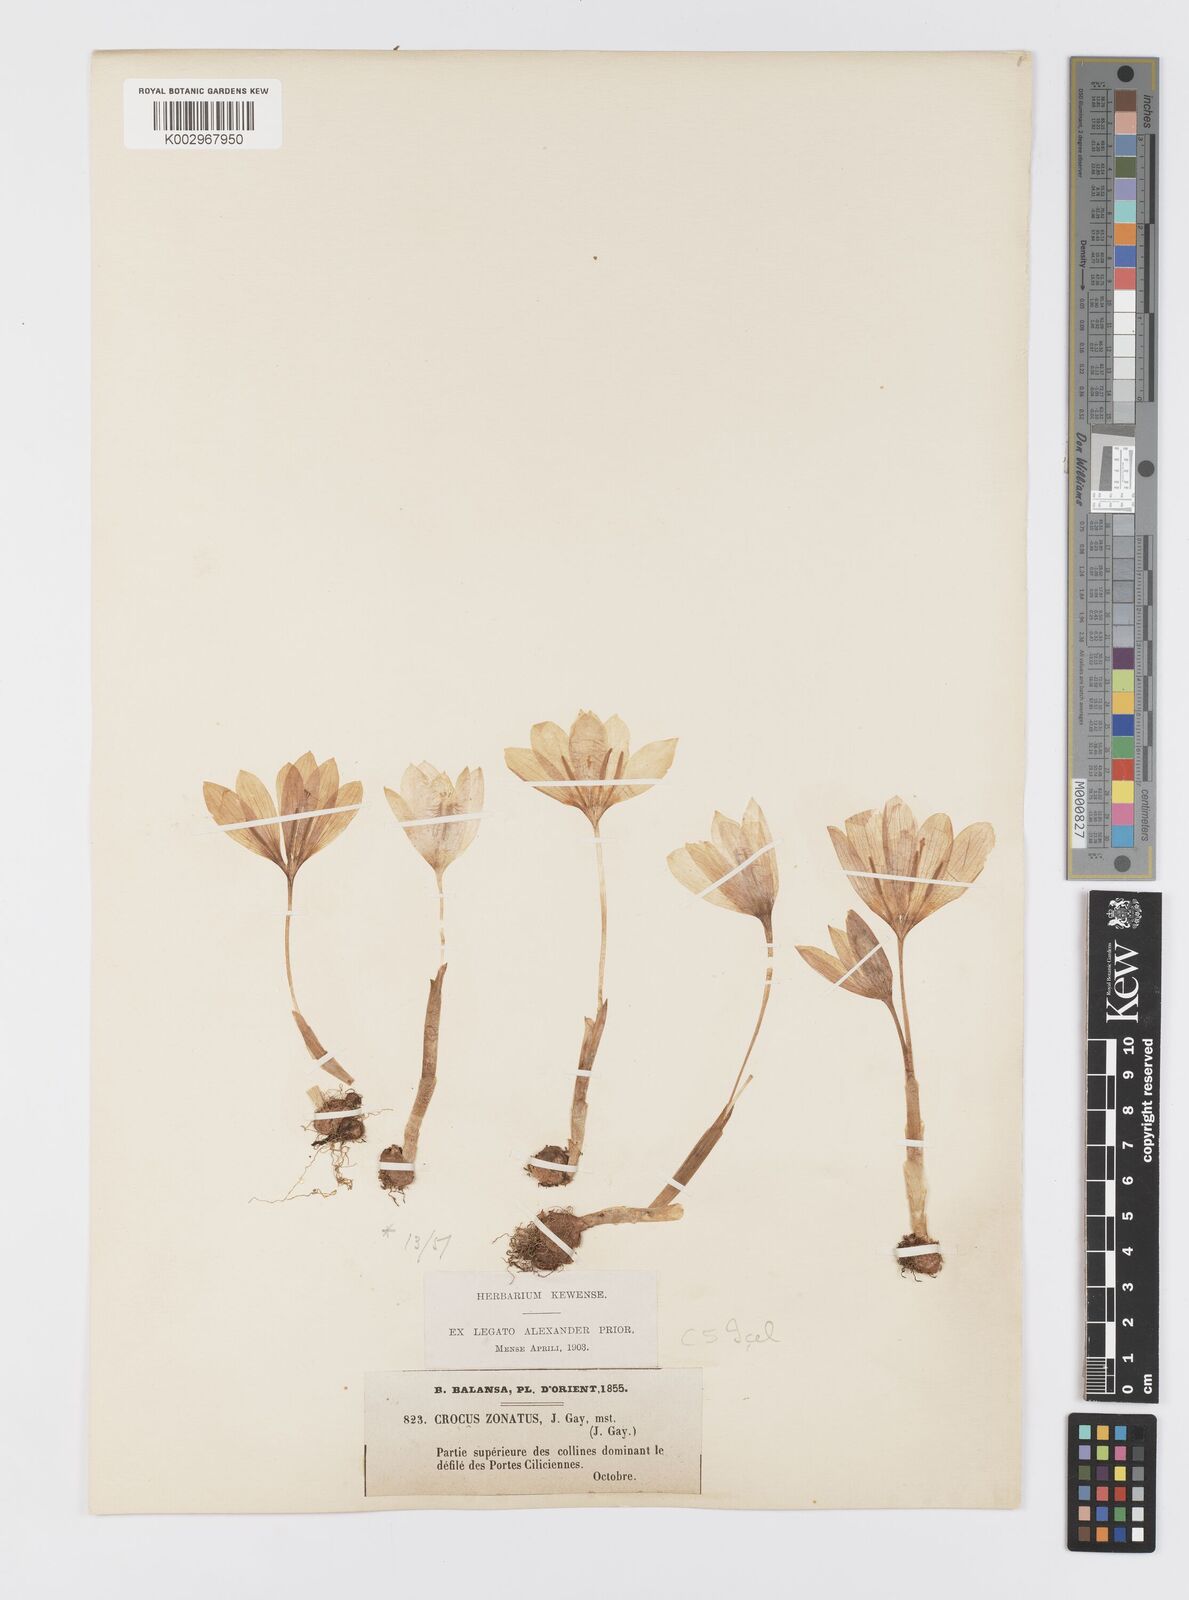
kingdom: Plantae
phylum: Tracheophyta
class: Liliopsida
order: Asparagales
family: Iridaceae
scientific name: Iridaceae
